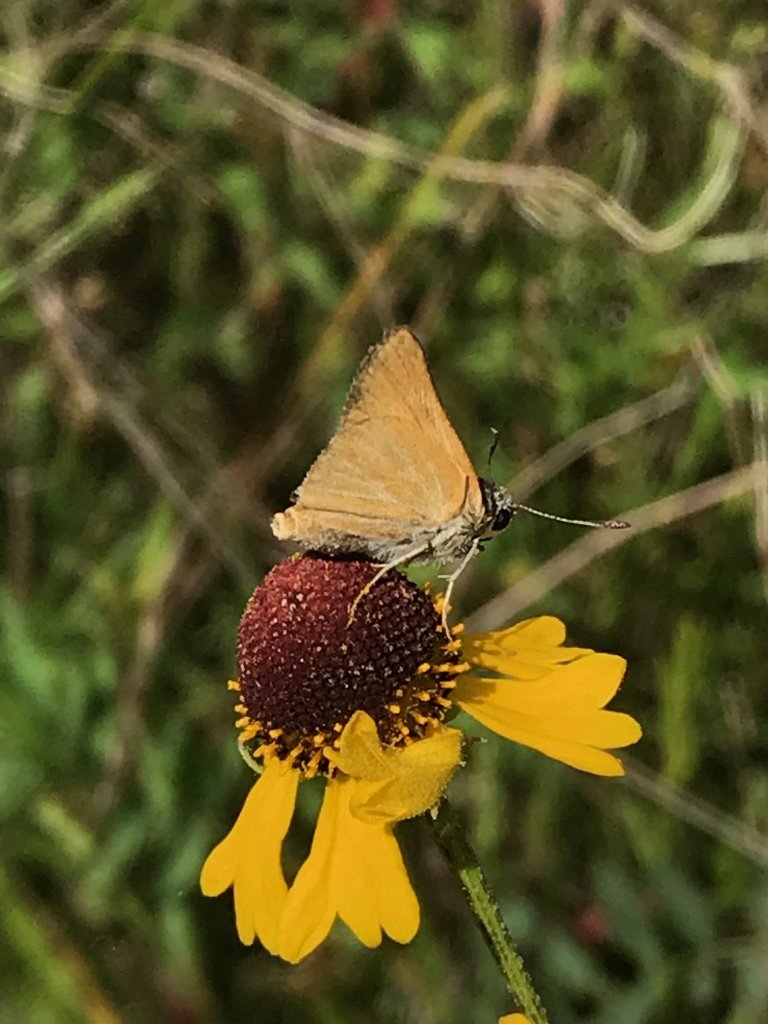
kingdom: Animalia
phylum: Arthropoda
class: Insecta
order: Lepidoptera
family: Hesperiidae
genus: Atrytone
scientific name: Atrytone arogos
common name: Arogos Skipper
